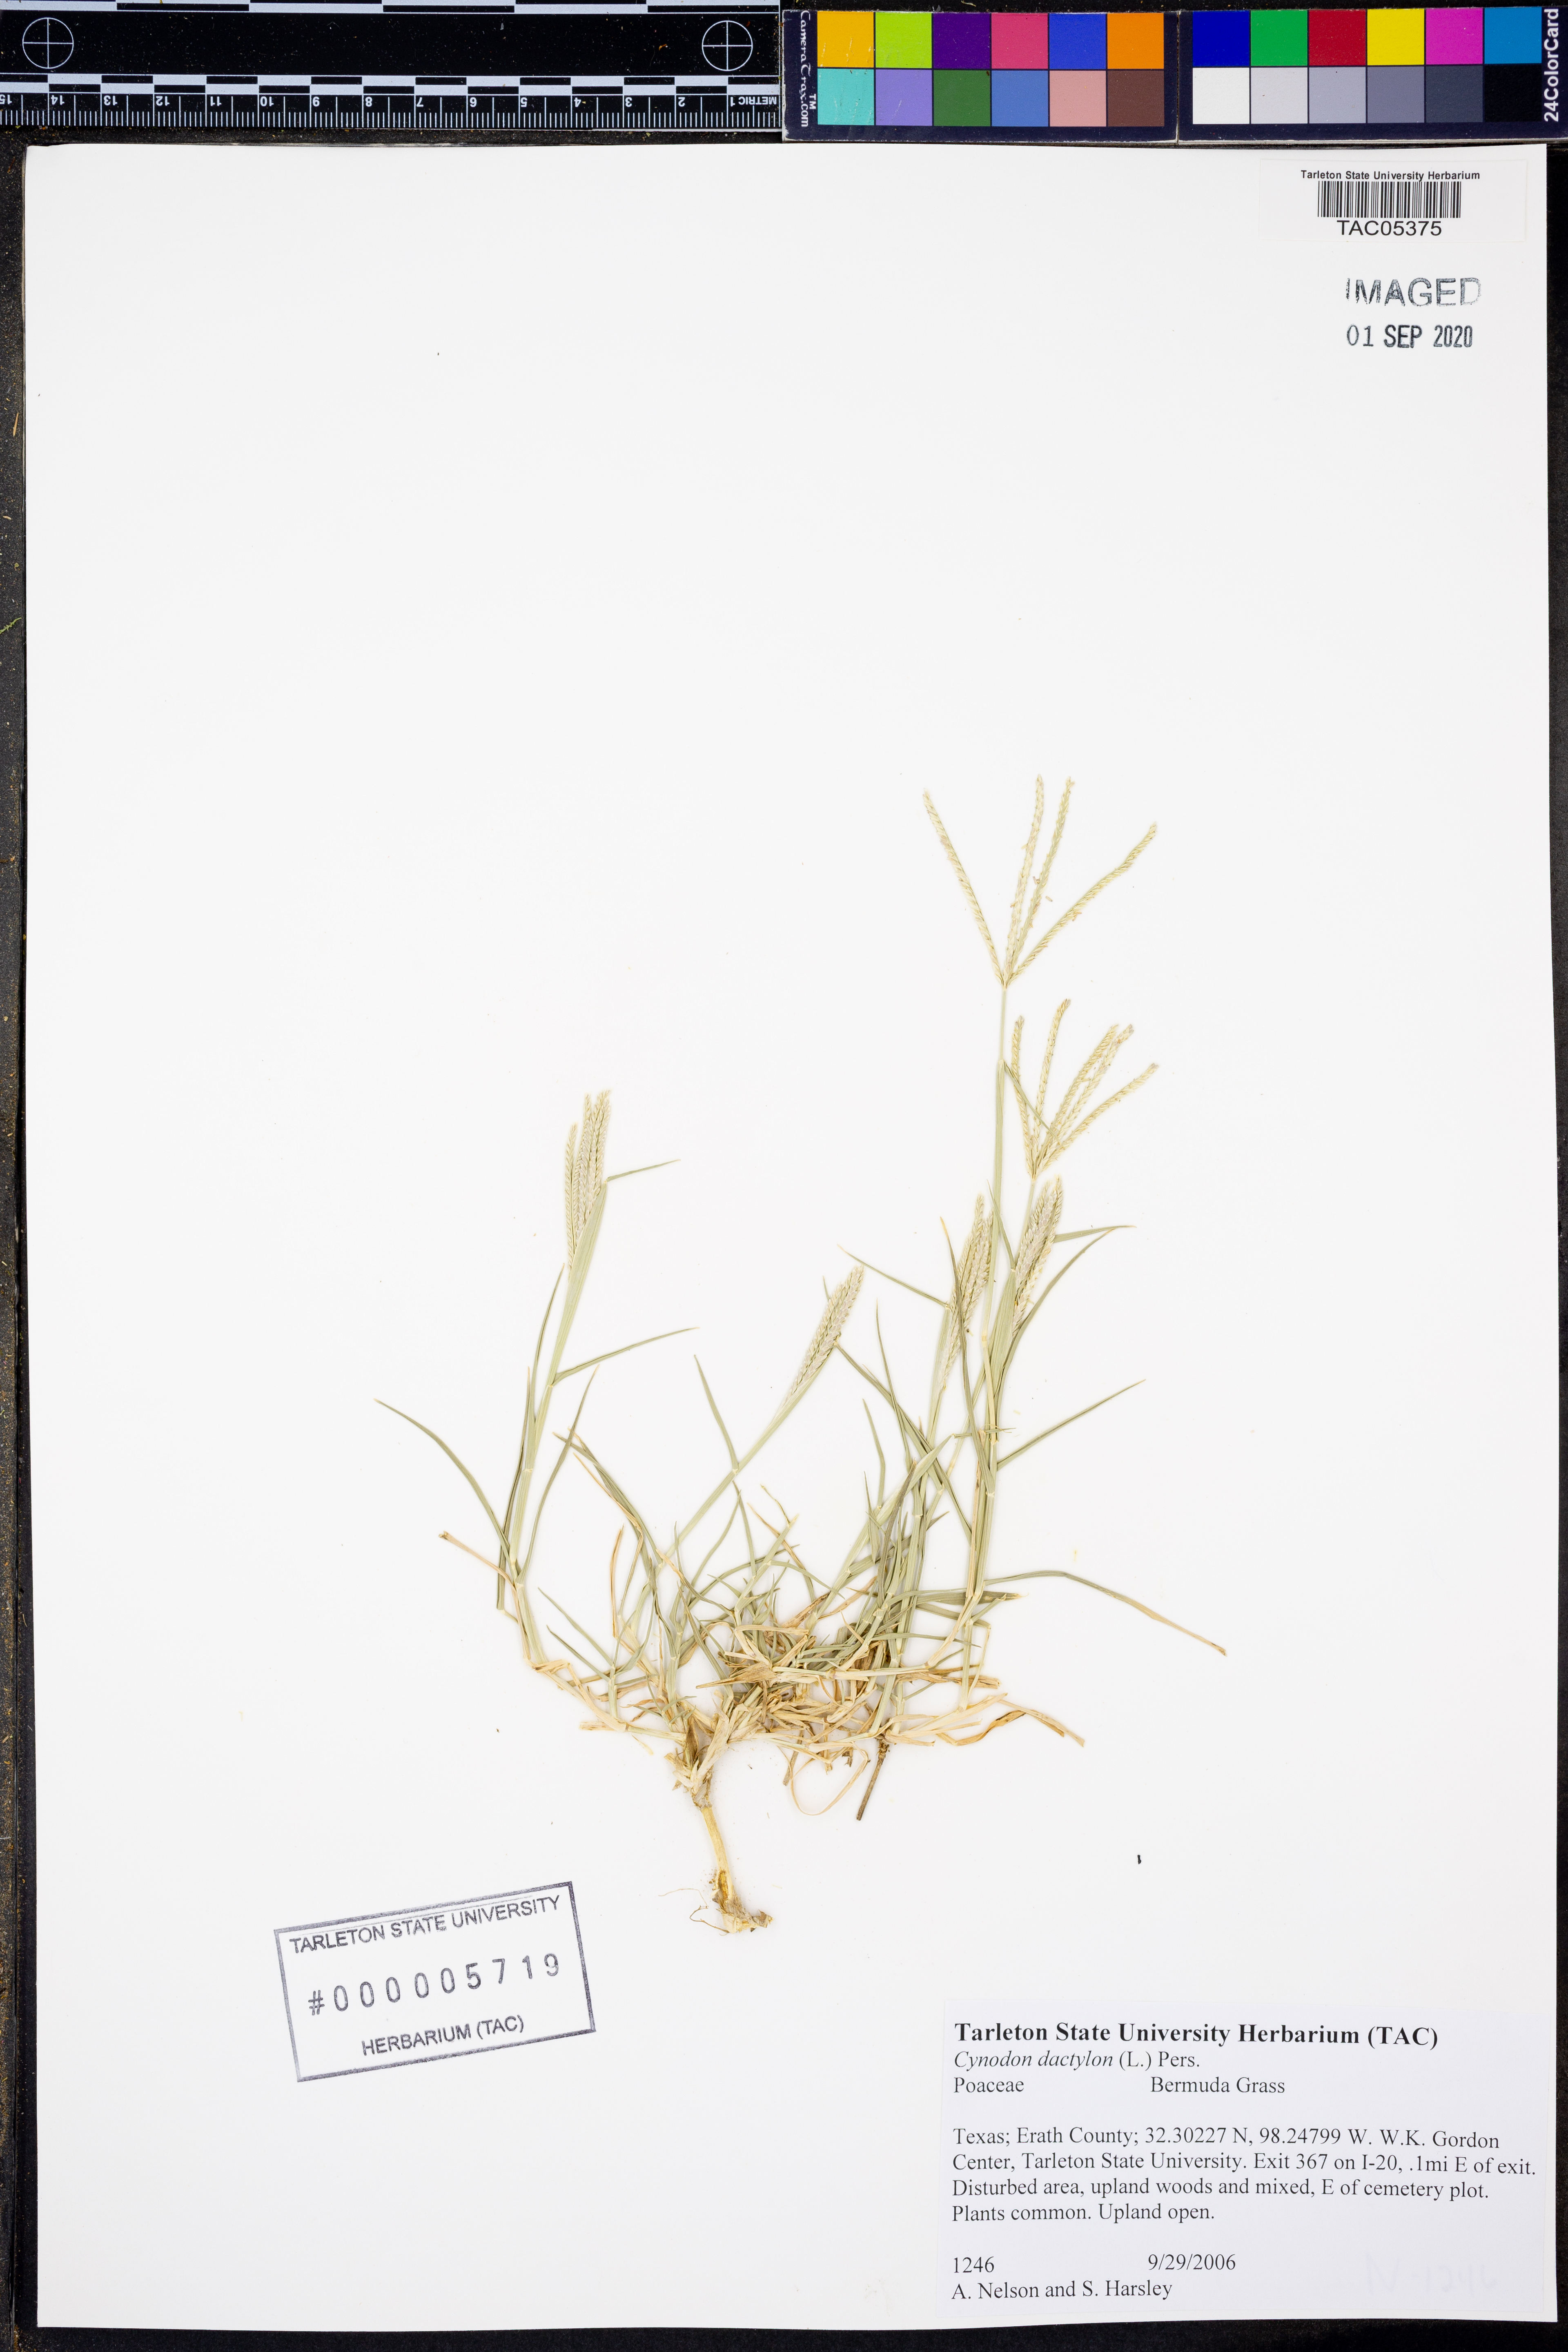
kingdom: Plantae
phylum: Tracheophyta
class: Liliopsida
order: Poales
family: Poaceae
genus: Cynodon
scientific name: Cynodon dactylon
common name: Bermuda grass
